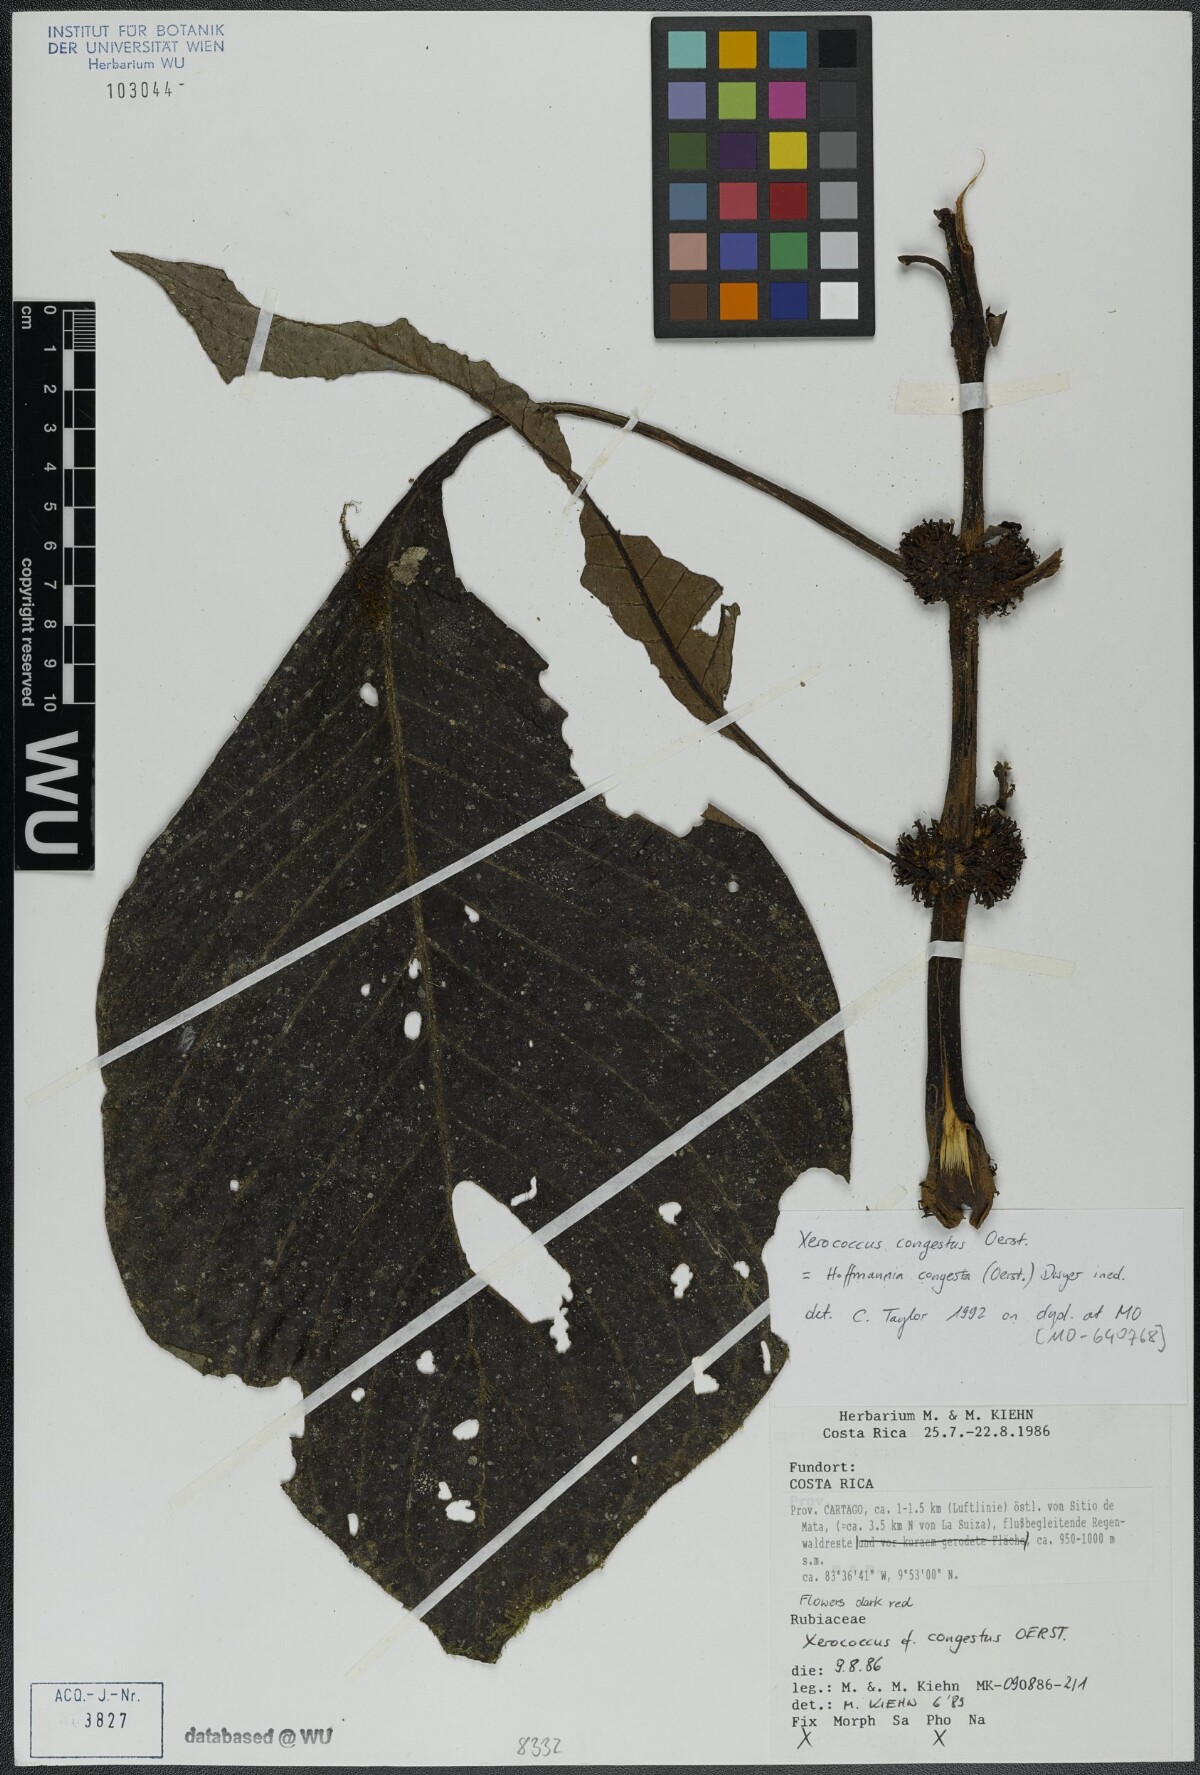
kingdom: Plantae
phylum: Tracheophyta
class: Magnoliopsida
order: Gentianales
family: Rubiaceae
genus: Hoffmannia
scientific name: Hoffmannia congesta
